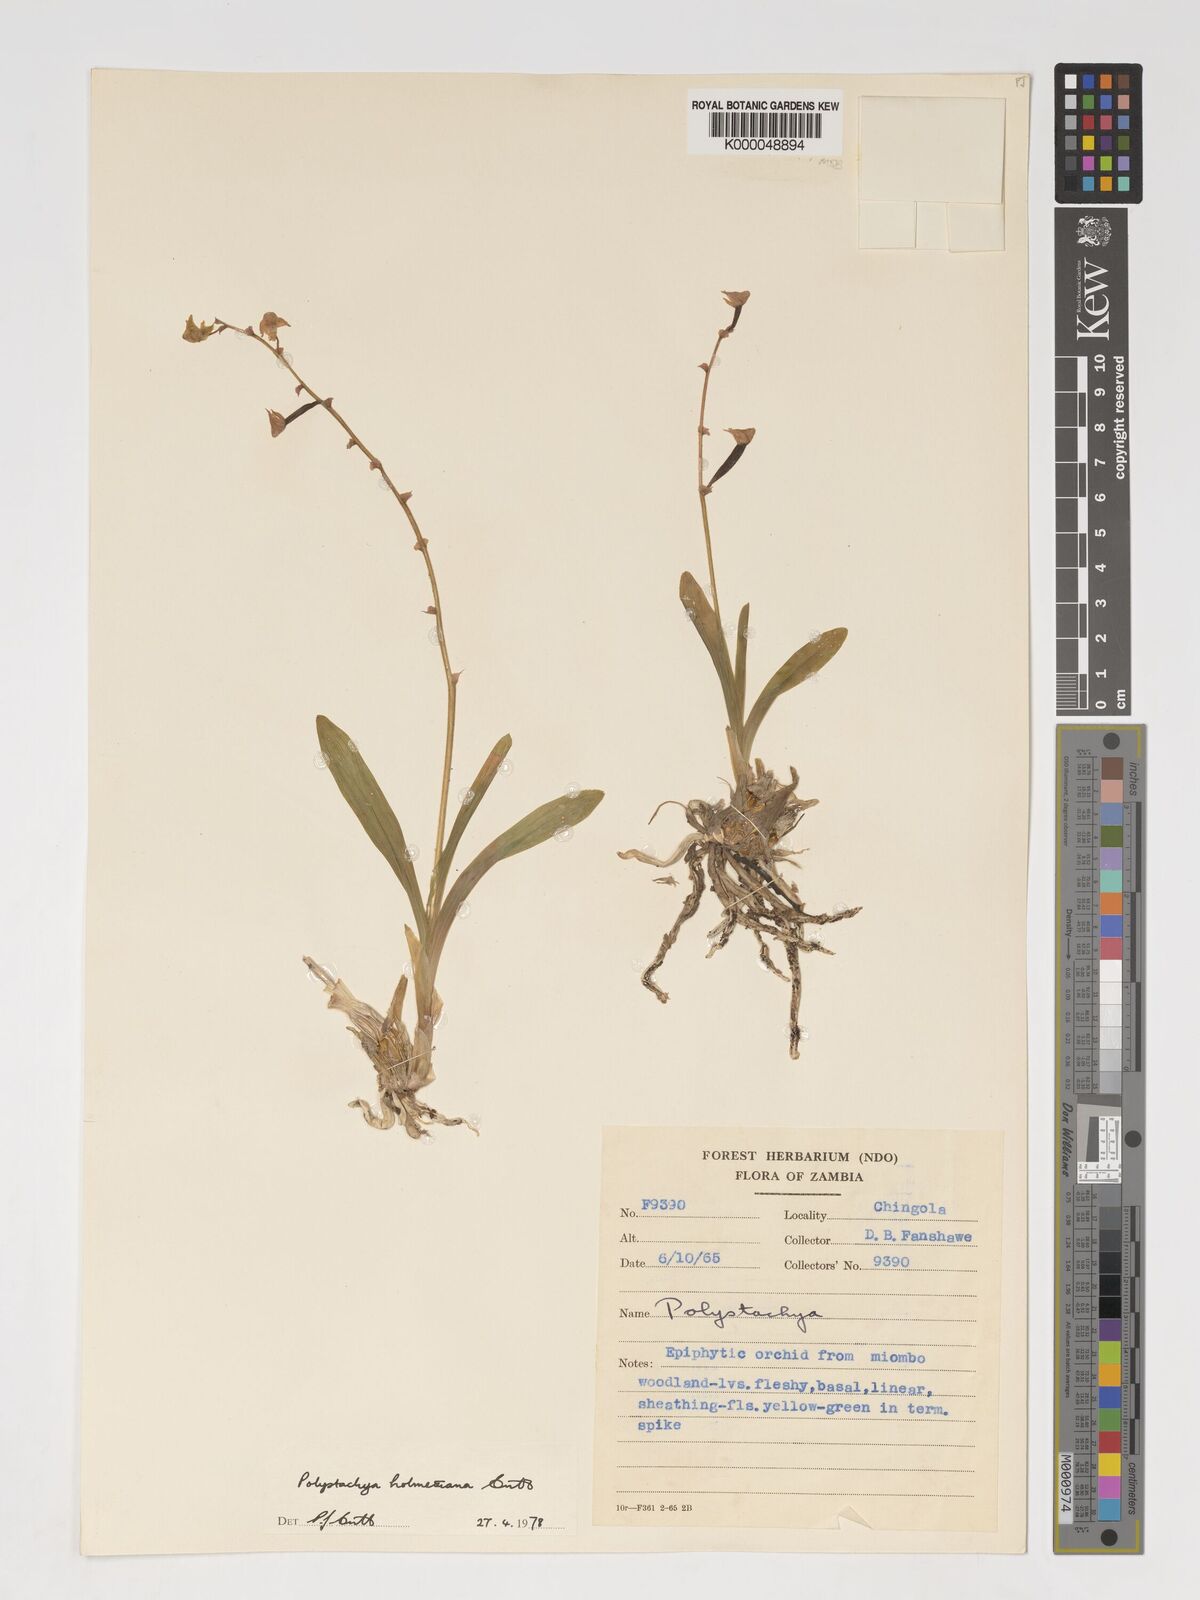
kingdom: Plantae
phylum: Tracheophyta
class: Liliopsida
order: Asparagales
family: Orchidaceae
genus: Polystachya
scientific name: Polystachya holmesiana
